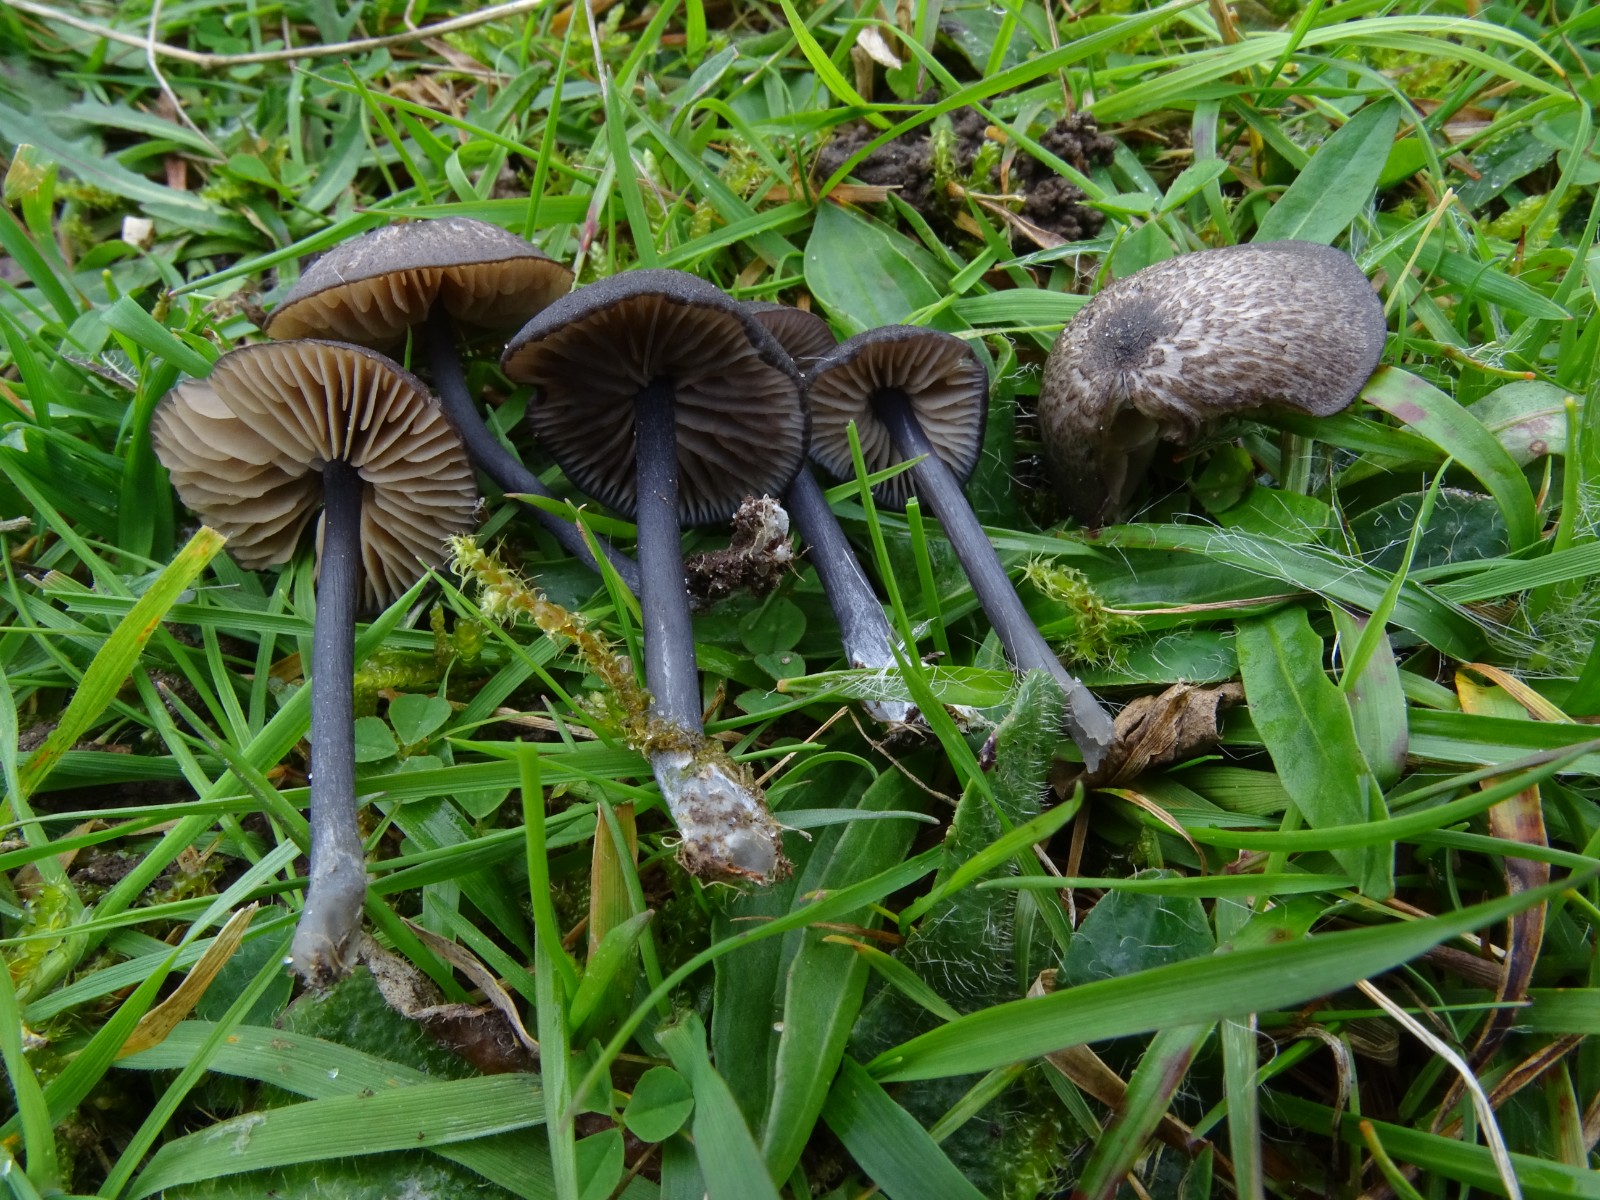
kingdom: Fungi
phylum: Basidiomycota
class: Agaricomycetes
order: Agaricales
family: Entolomataceae
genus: Entoloma
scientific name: Entoloma
